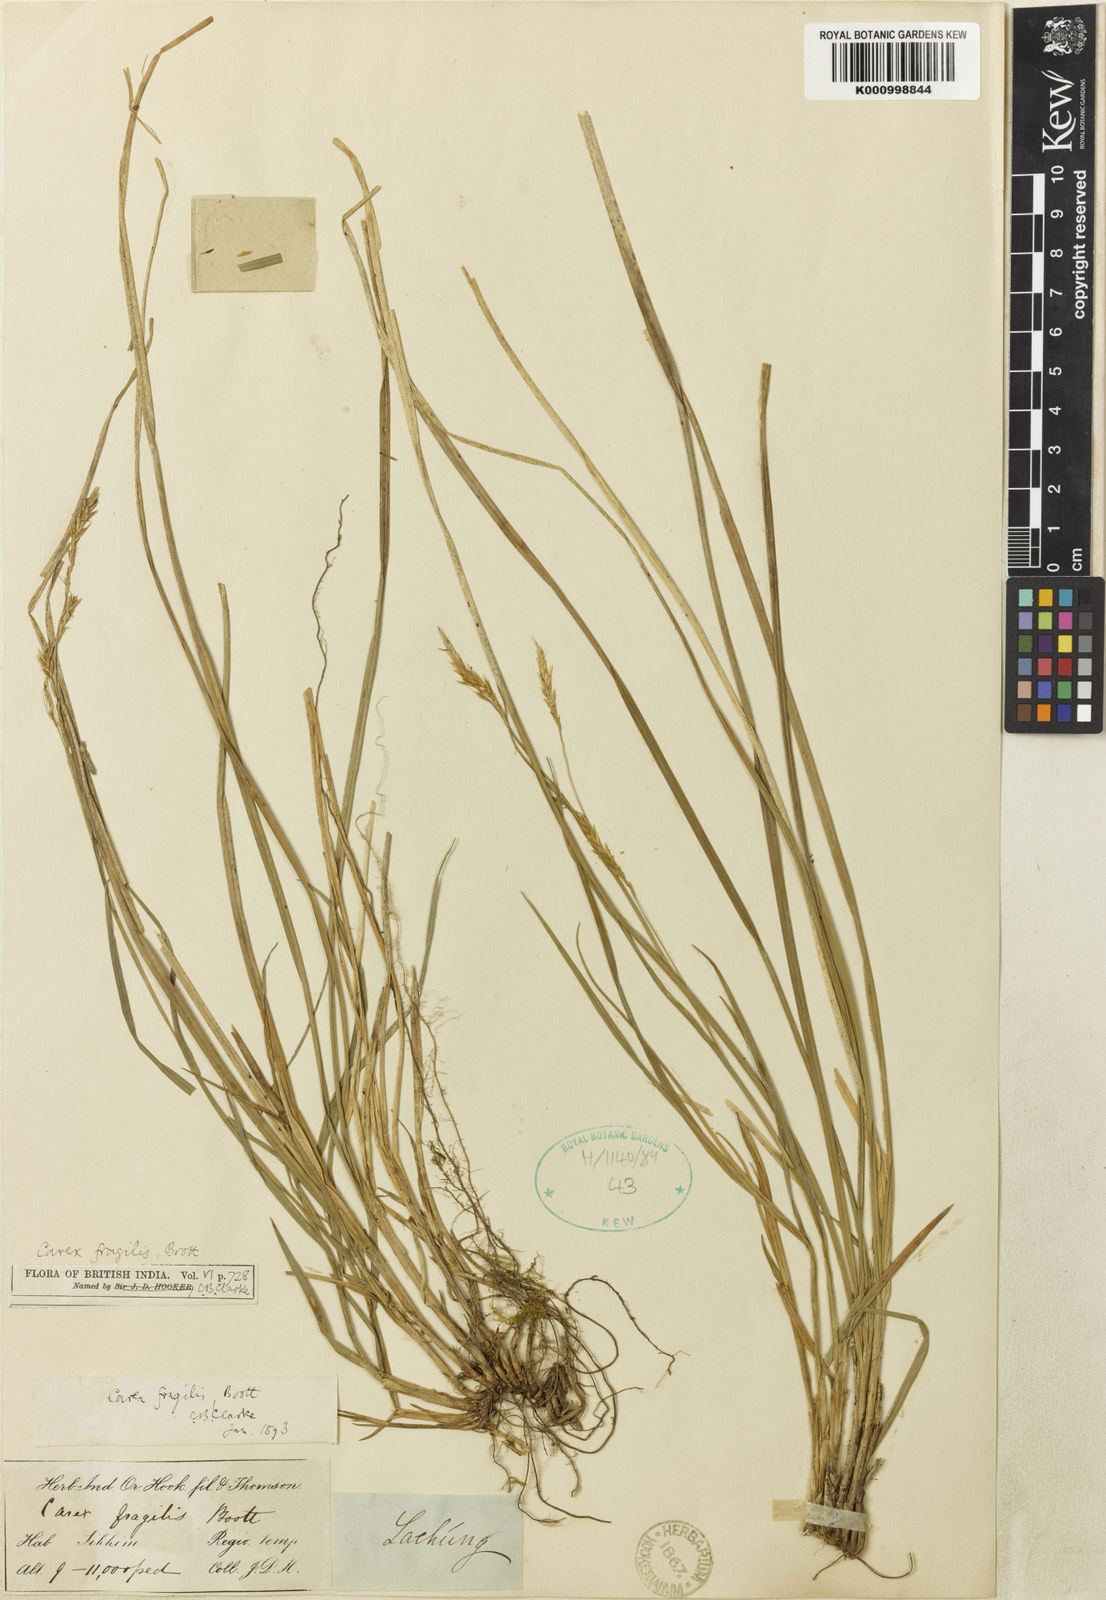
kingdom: Plantae
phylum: Tracheophyta
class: Liliopsida
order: Poales
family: Cyperaceae
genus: Carex
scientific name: Carex fragilis
